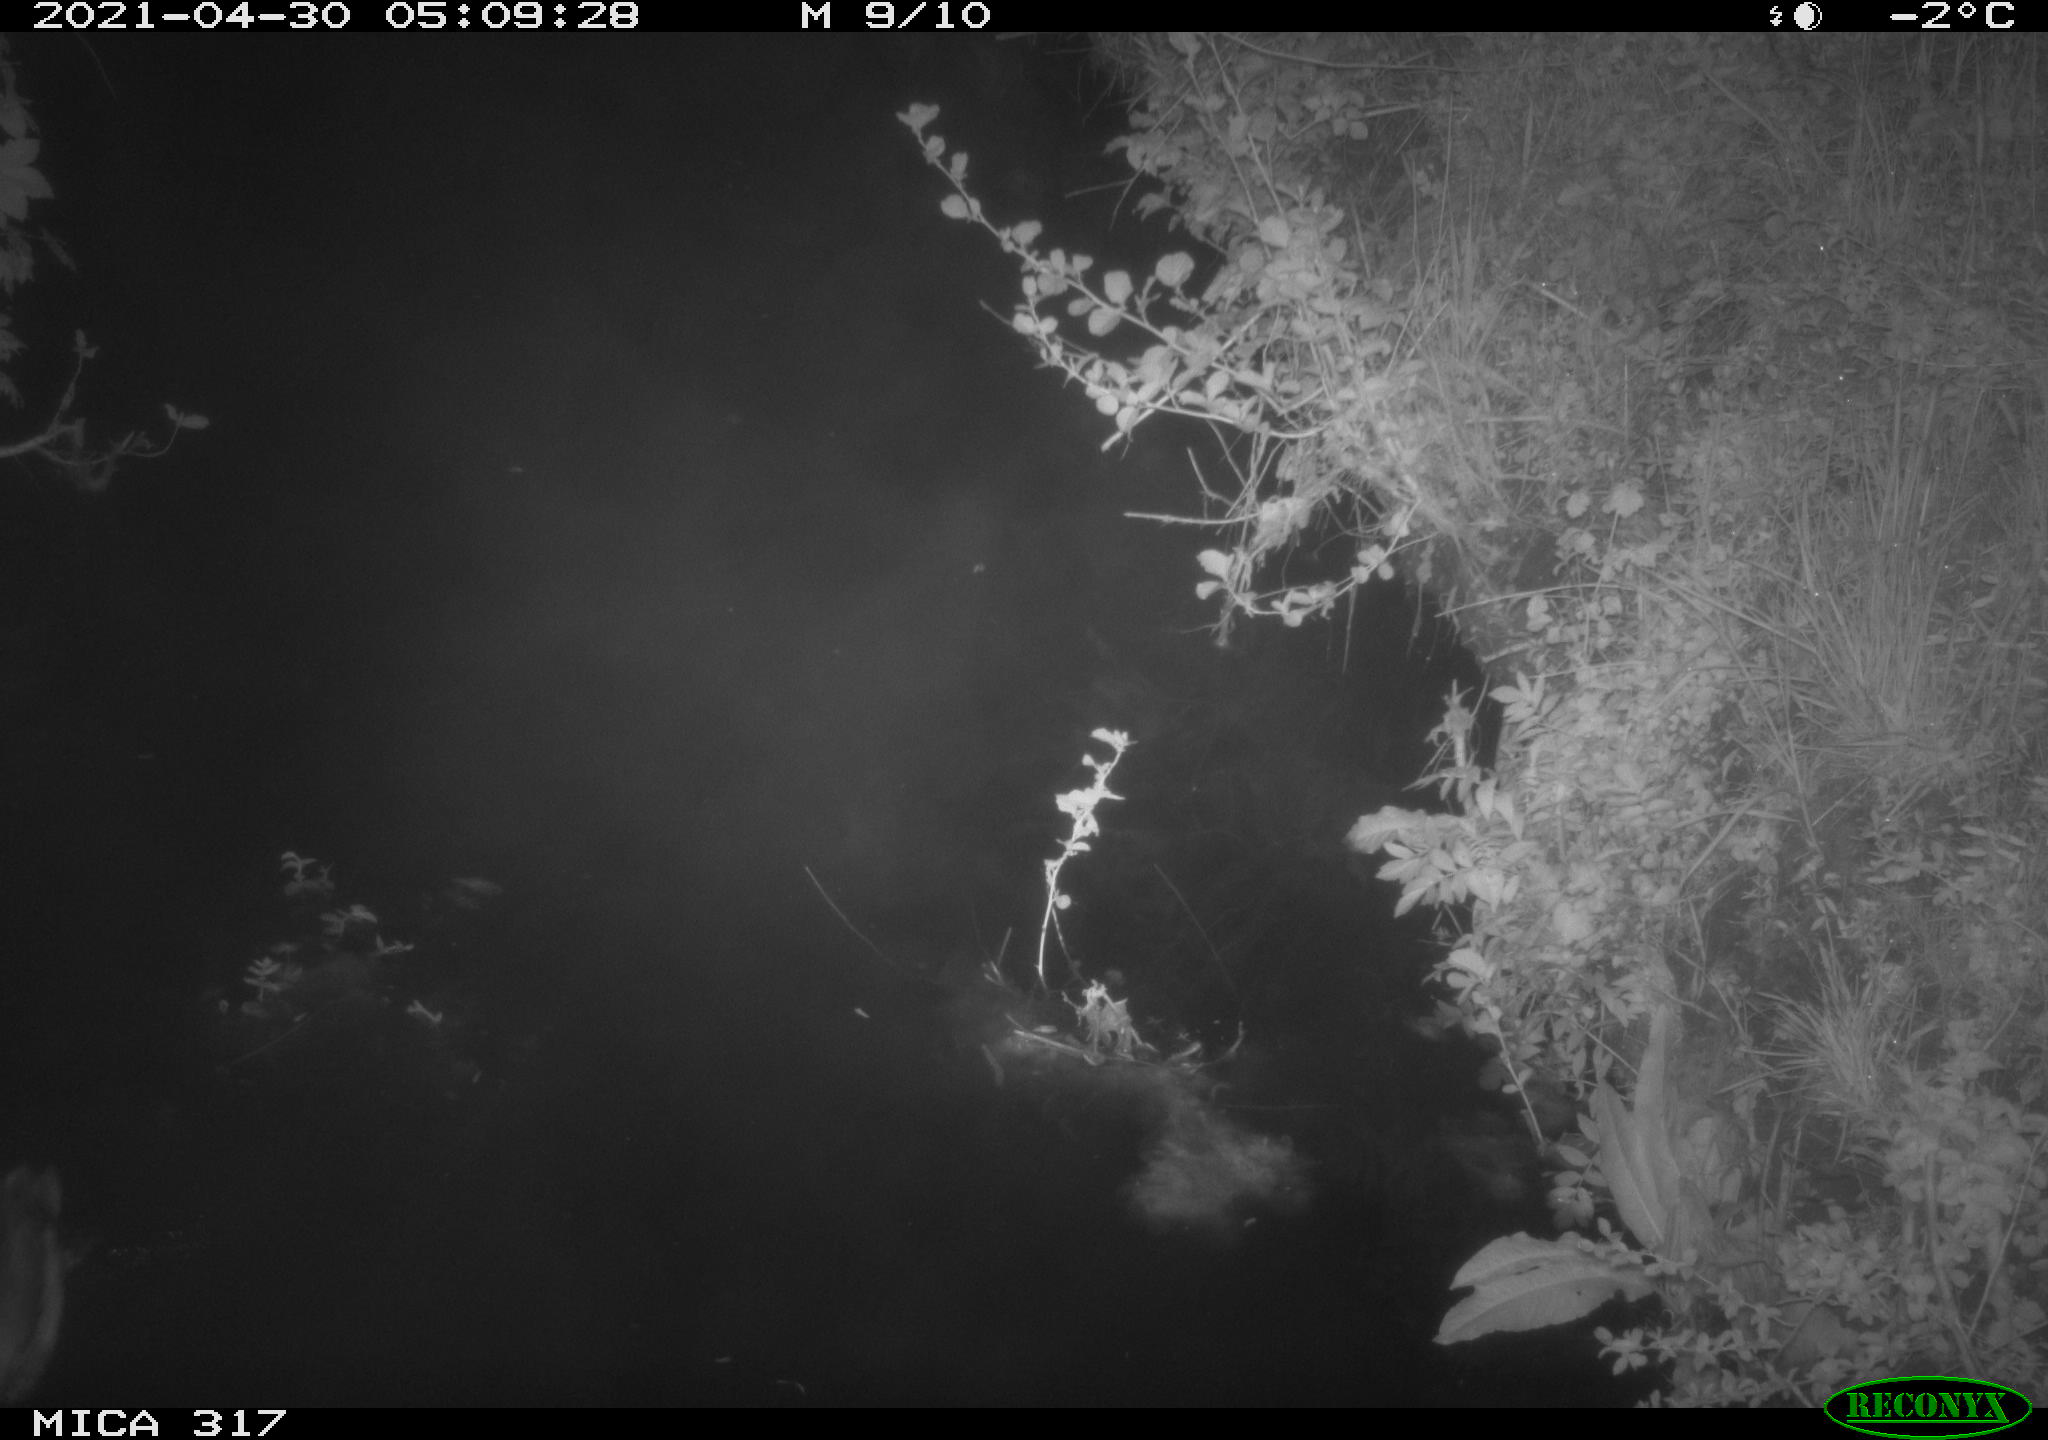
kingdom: Animalia
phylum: Chordata
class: Aves
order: Anseriformes
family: Anatidae
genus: Anas
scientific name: Anas
